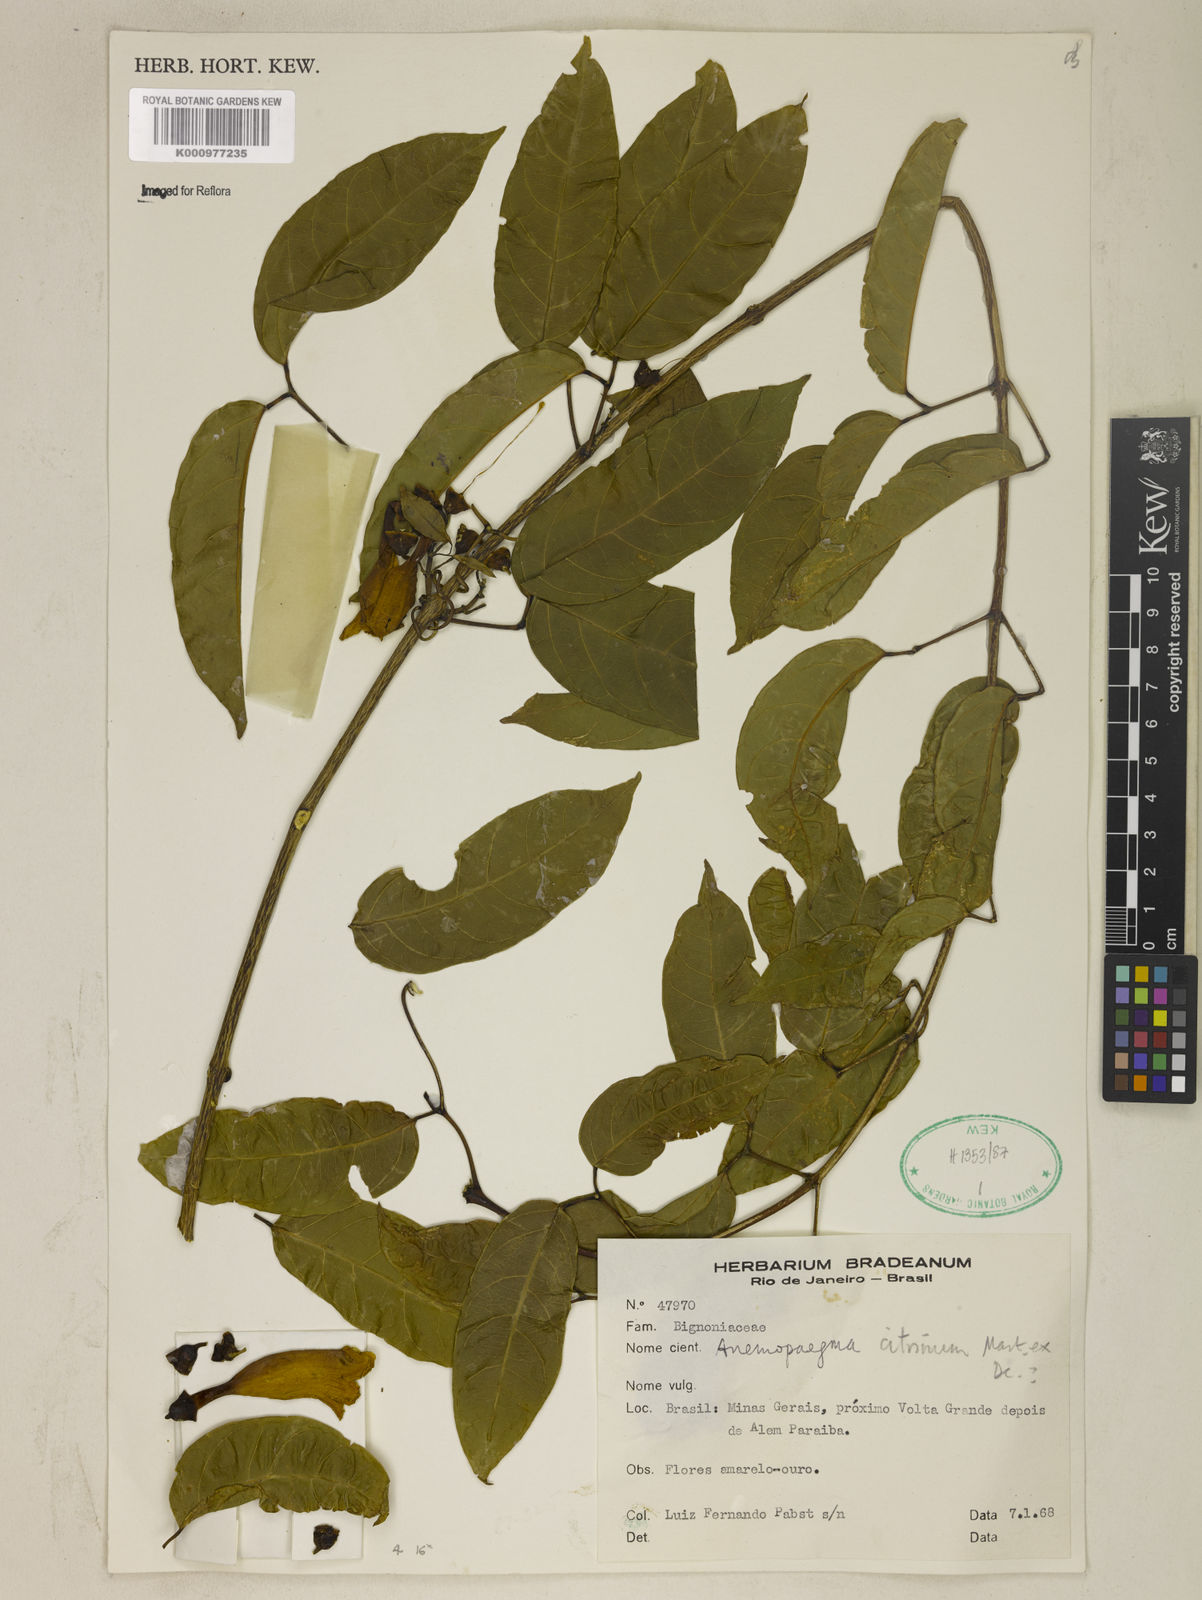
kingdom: Plantae
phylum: Tracheophyta
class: Magnoliopsida
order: Lamiales
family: Bignoniaceae
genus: Anemopaegma
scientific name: Anemopaegma citrinum
